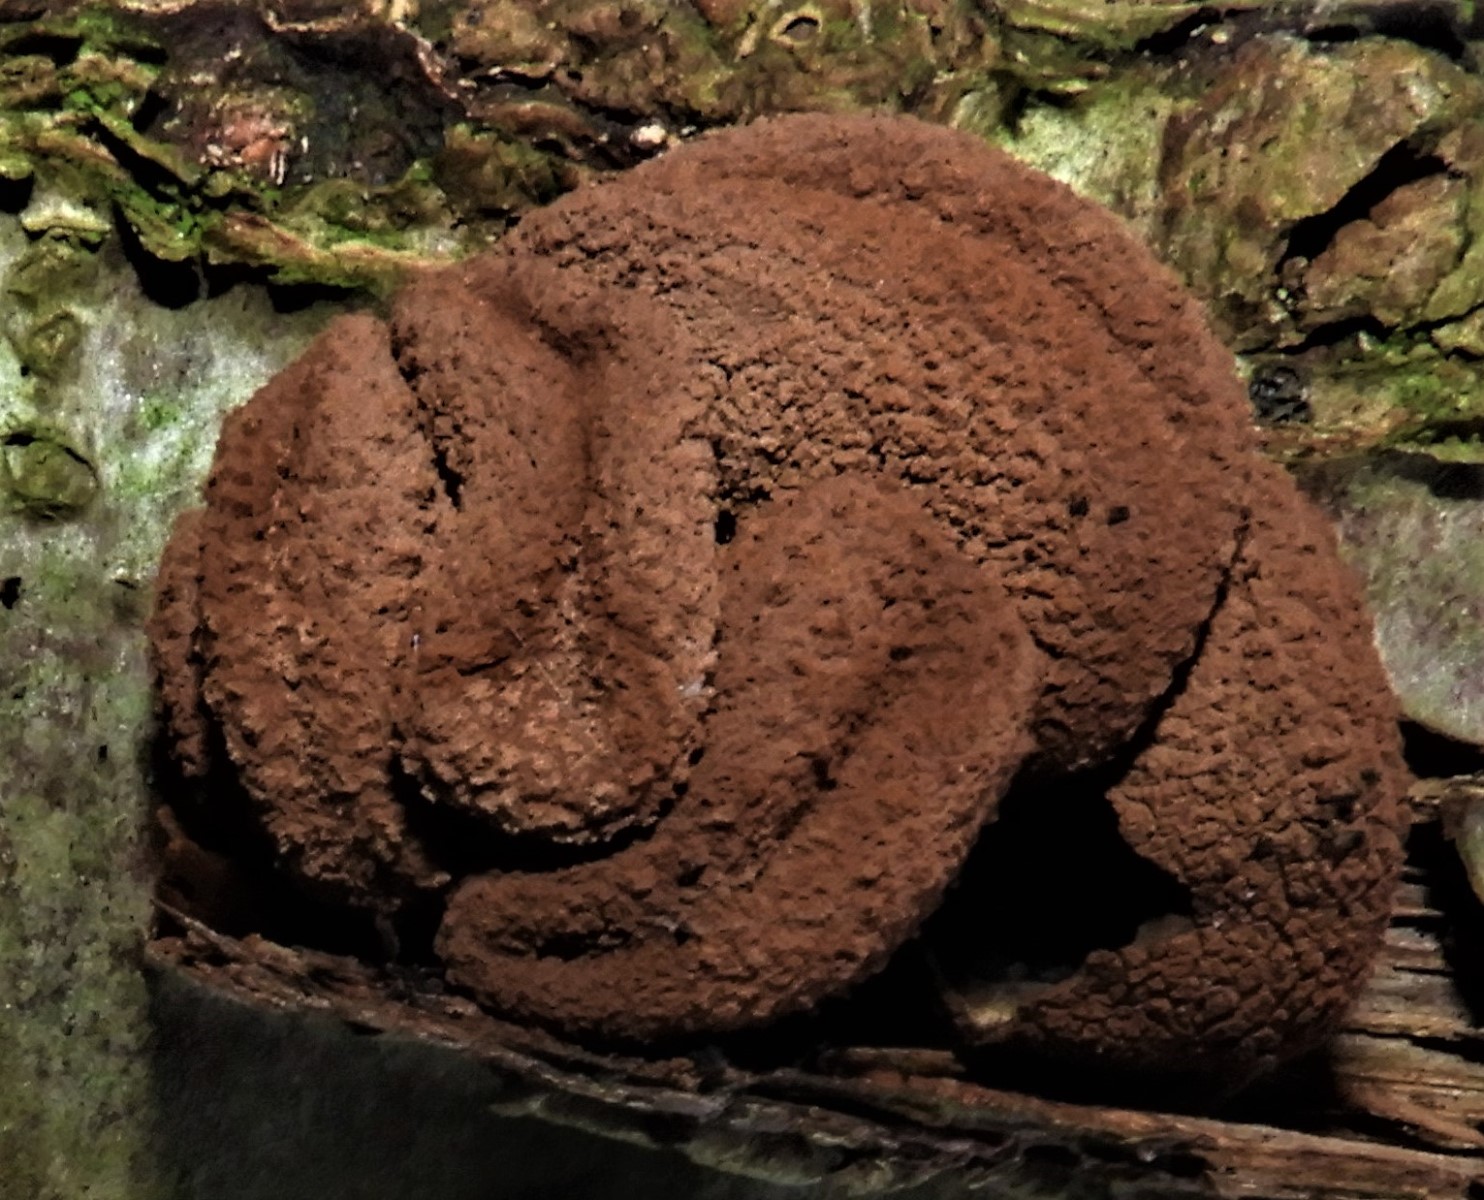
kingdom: Fungi
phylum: Ascomycota
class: Leotiomycetes
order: Helotiales
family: Cenangiaceae
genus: Encoelia
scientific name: Encoelia furfuracea
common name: hassel-læderskive
